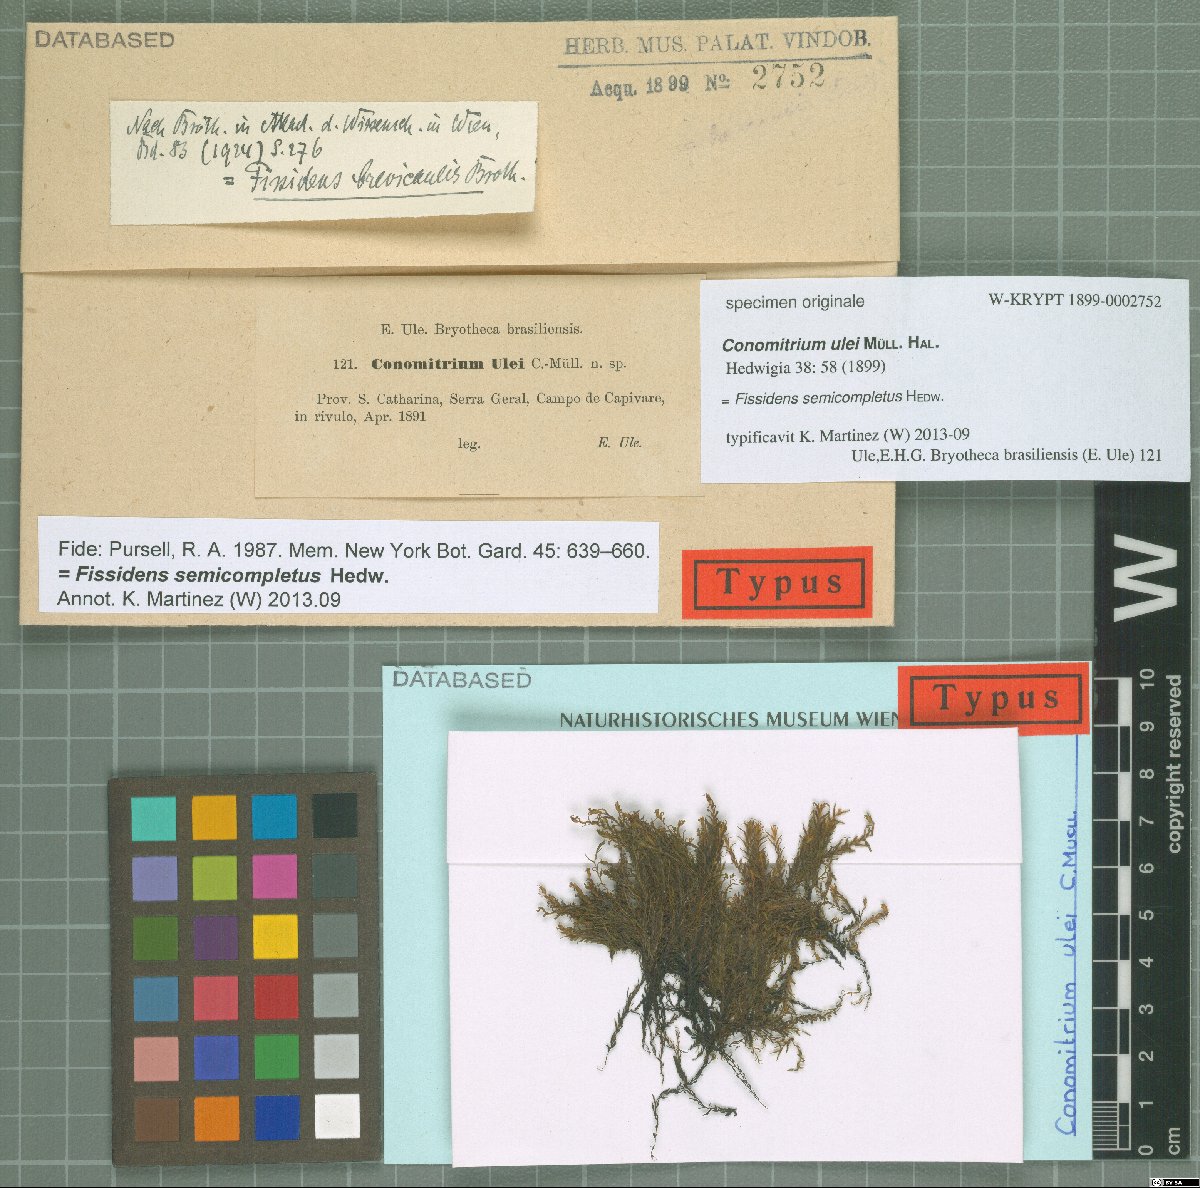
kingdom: Plantae
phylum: Bryophyta
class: Bryopsida
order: Dicranales
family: Fissidentaceae
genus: Fissidens
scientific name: Fissidens semicompletus
